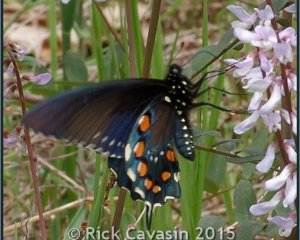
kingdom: Animalia
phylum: Arthropoda
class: Insecta
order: Lepidoptera
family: Papilionidae
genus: Battus
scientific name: Battus philenor
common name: Pipevine Swallowtail
